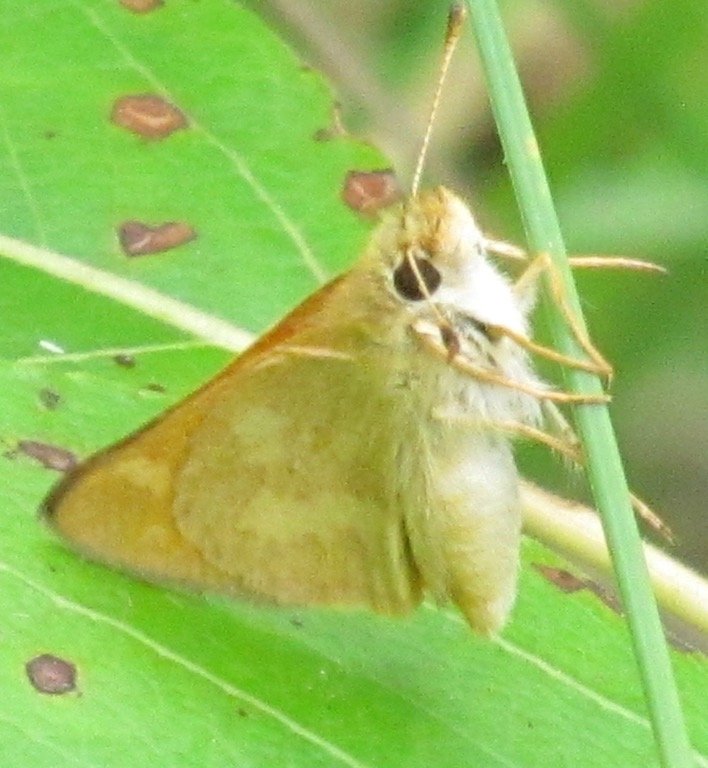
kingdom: Animalia
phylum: Arthropoda
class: Insecta
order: Lepidoptera
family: Hesperiidae
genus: Polites
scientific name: Polites
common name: Long Dash Skipper
